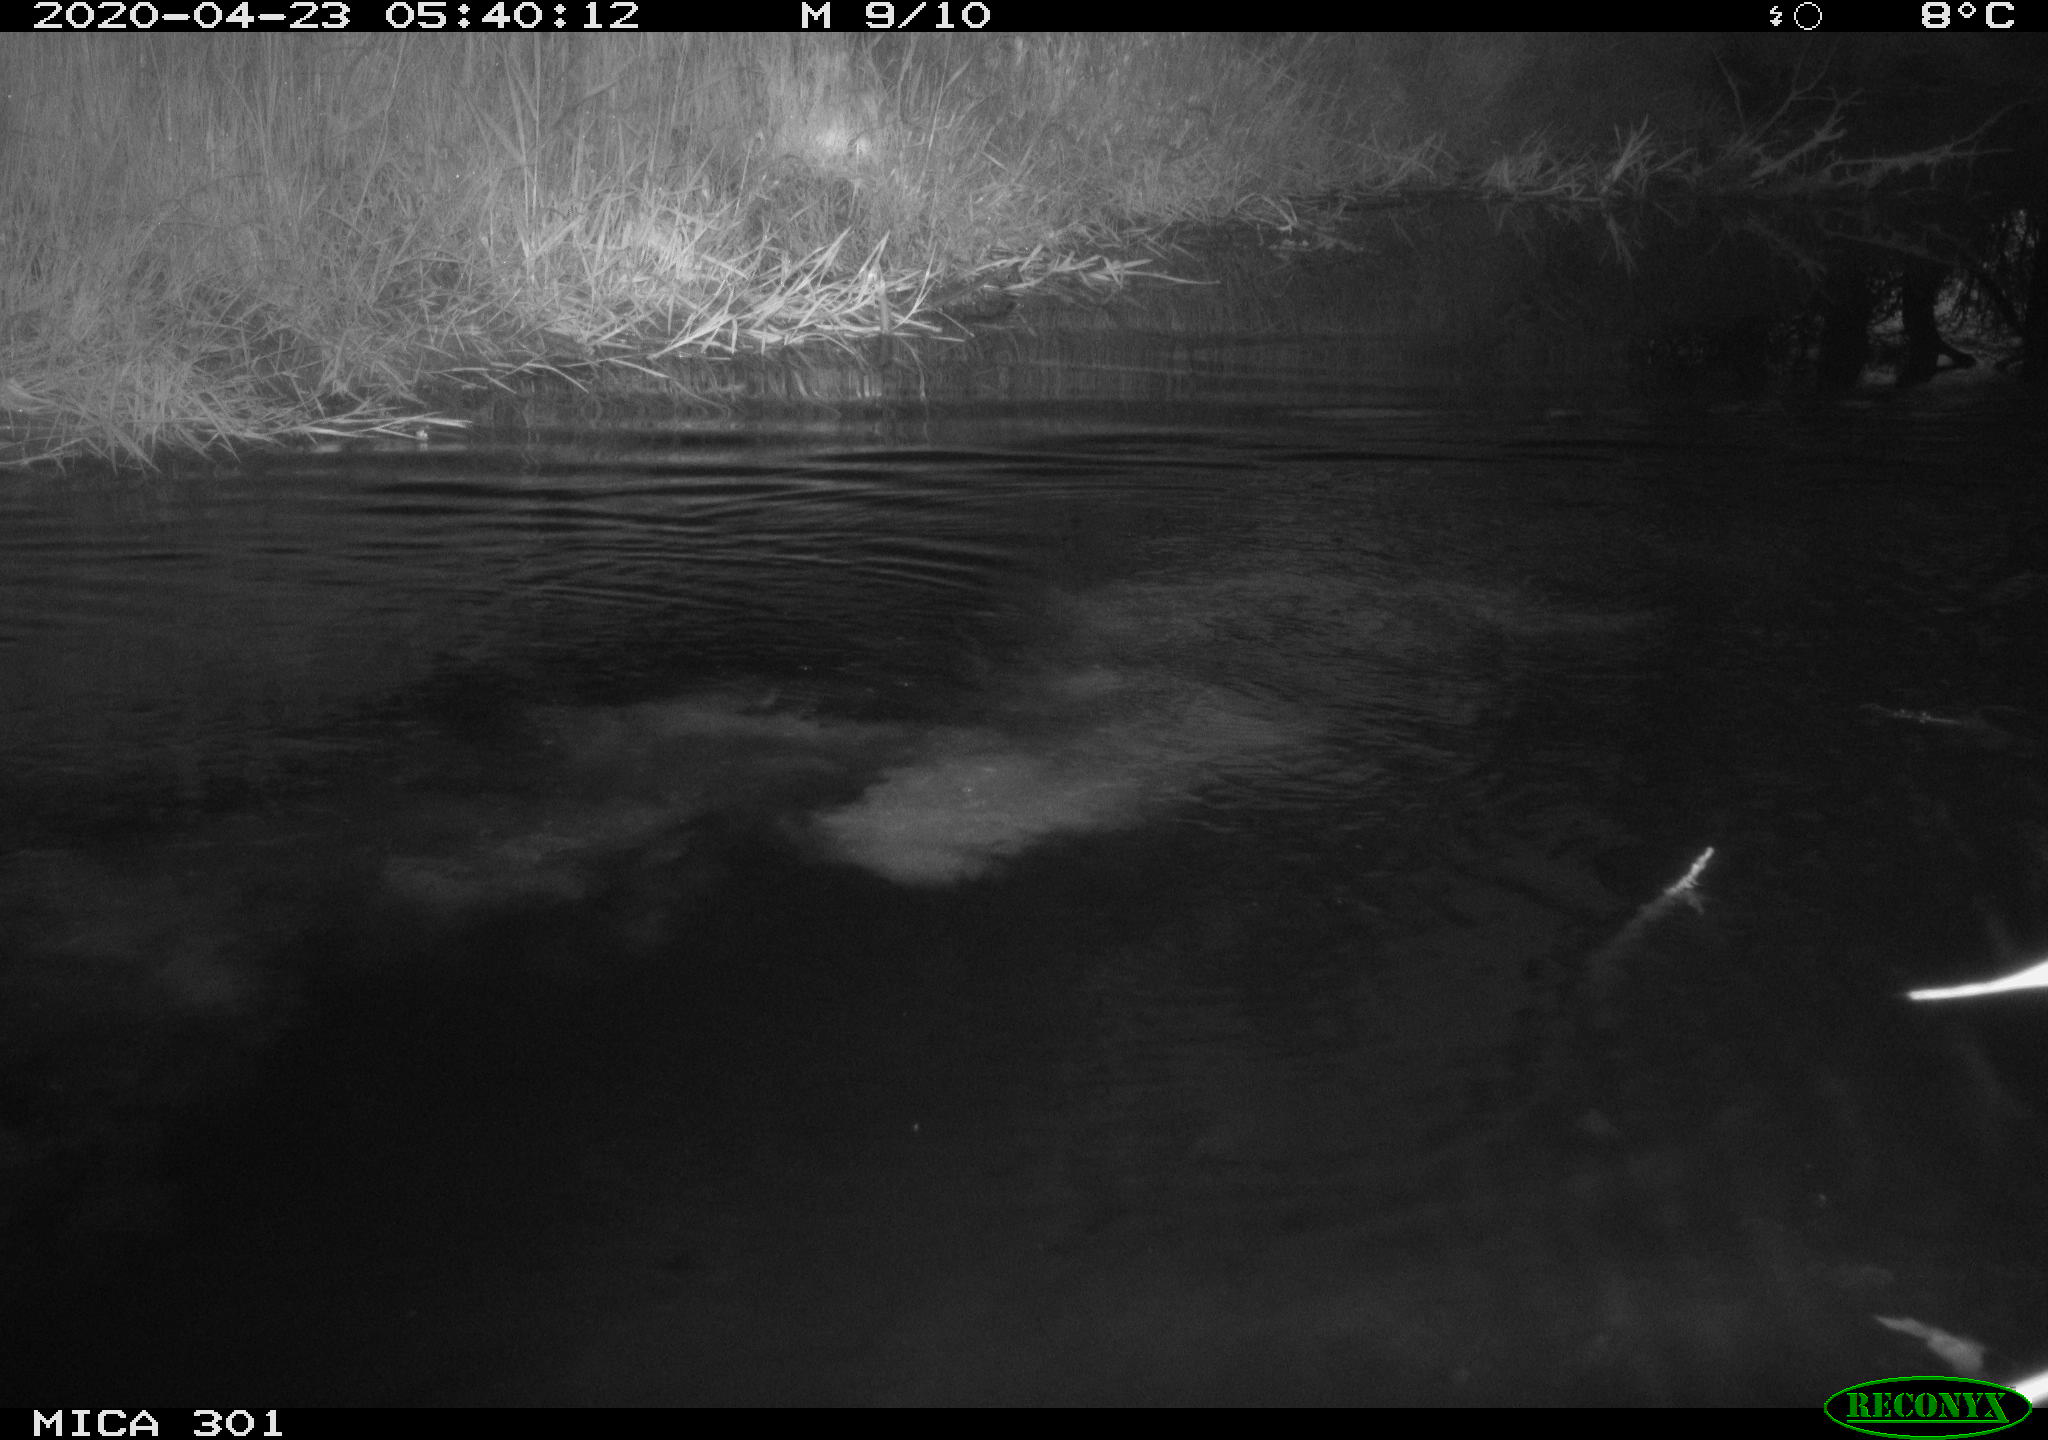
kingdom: Animalia
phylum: Chordata
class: Mammalia
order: Rodentia
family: Castoridae
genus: Castor
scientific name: Castor fiber
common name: Eurasian beaver
